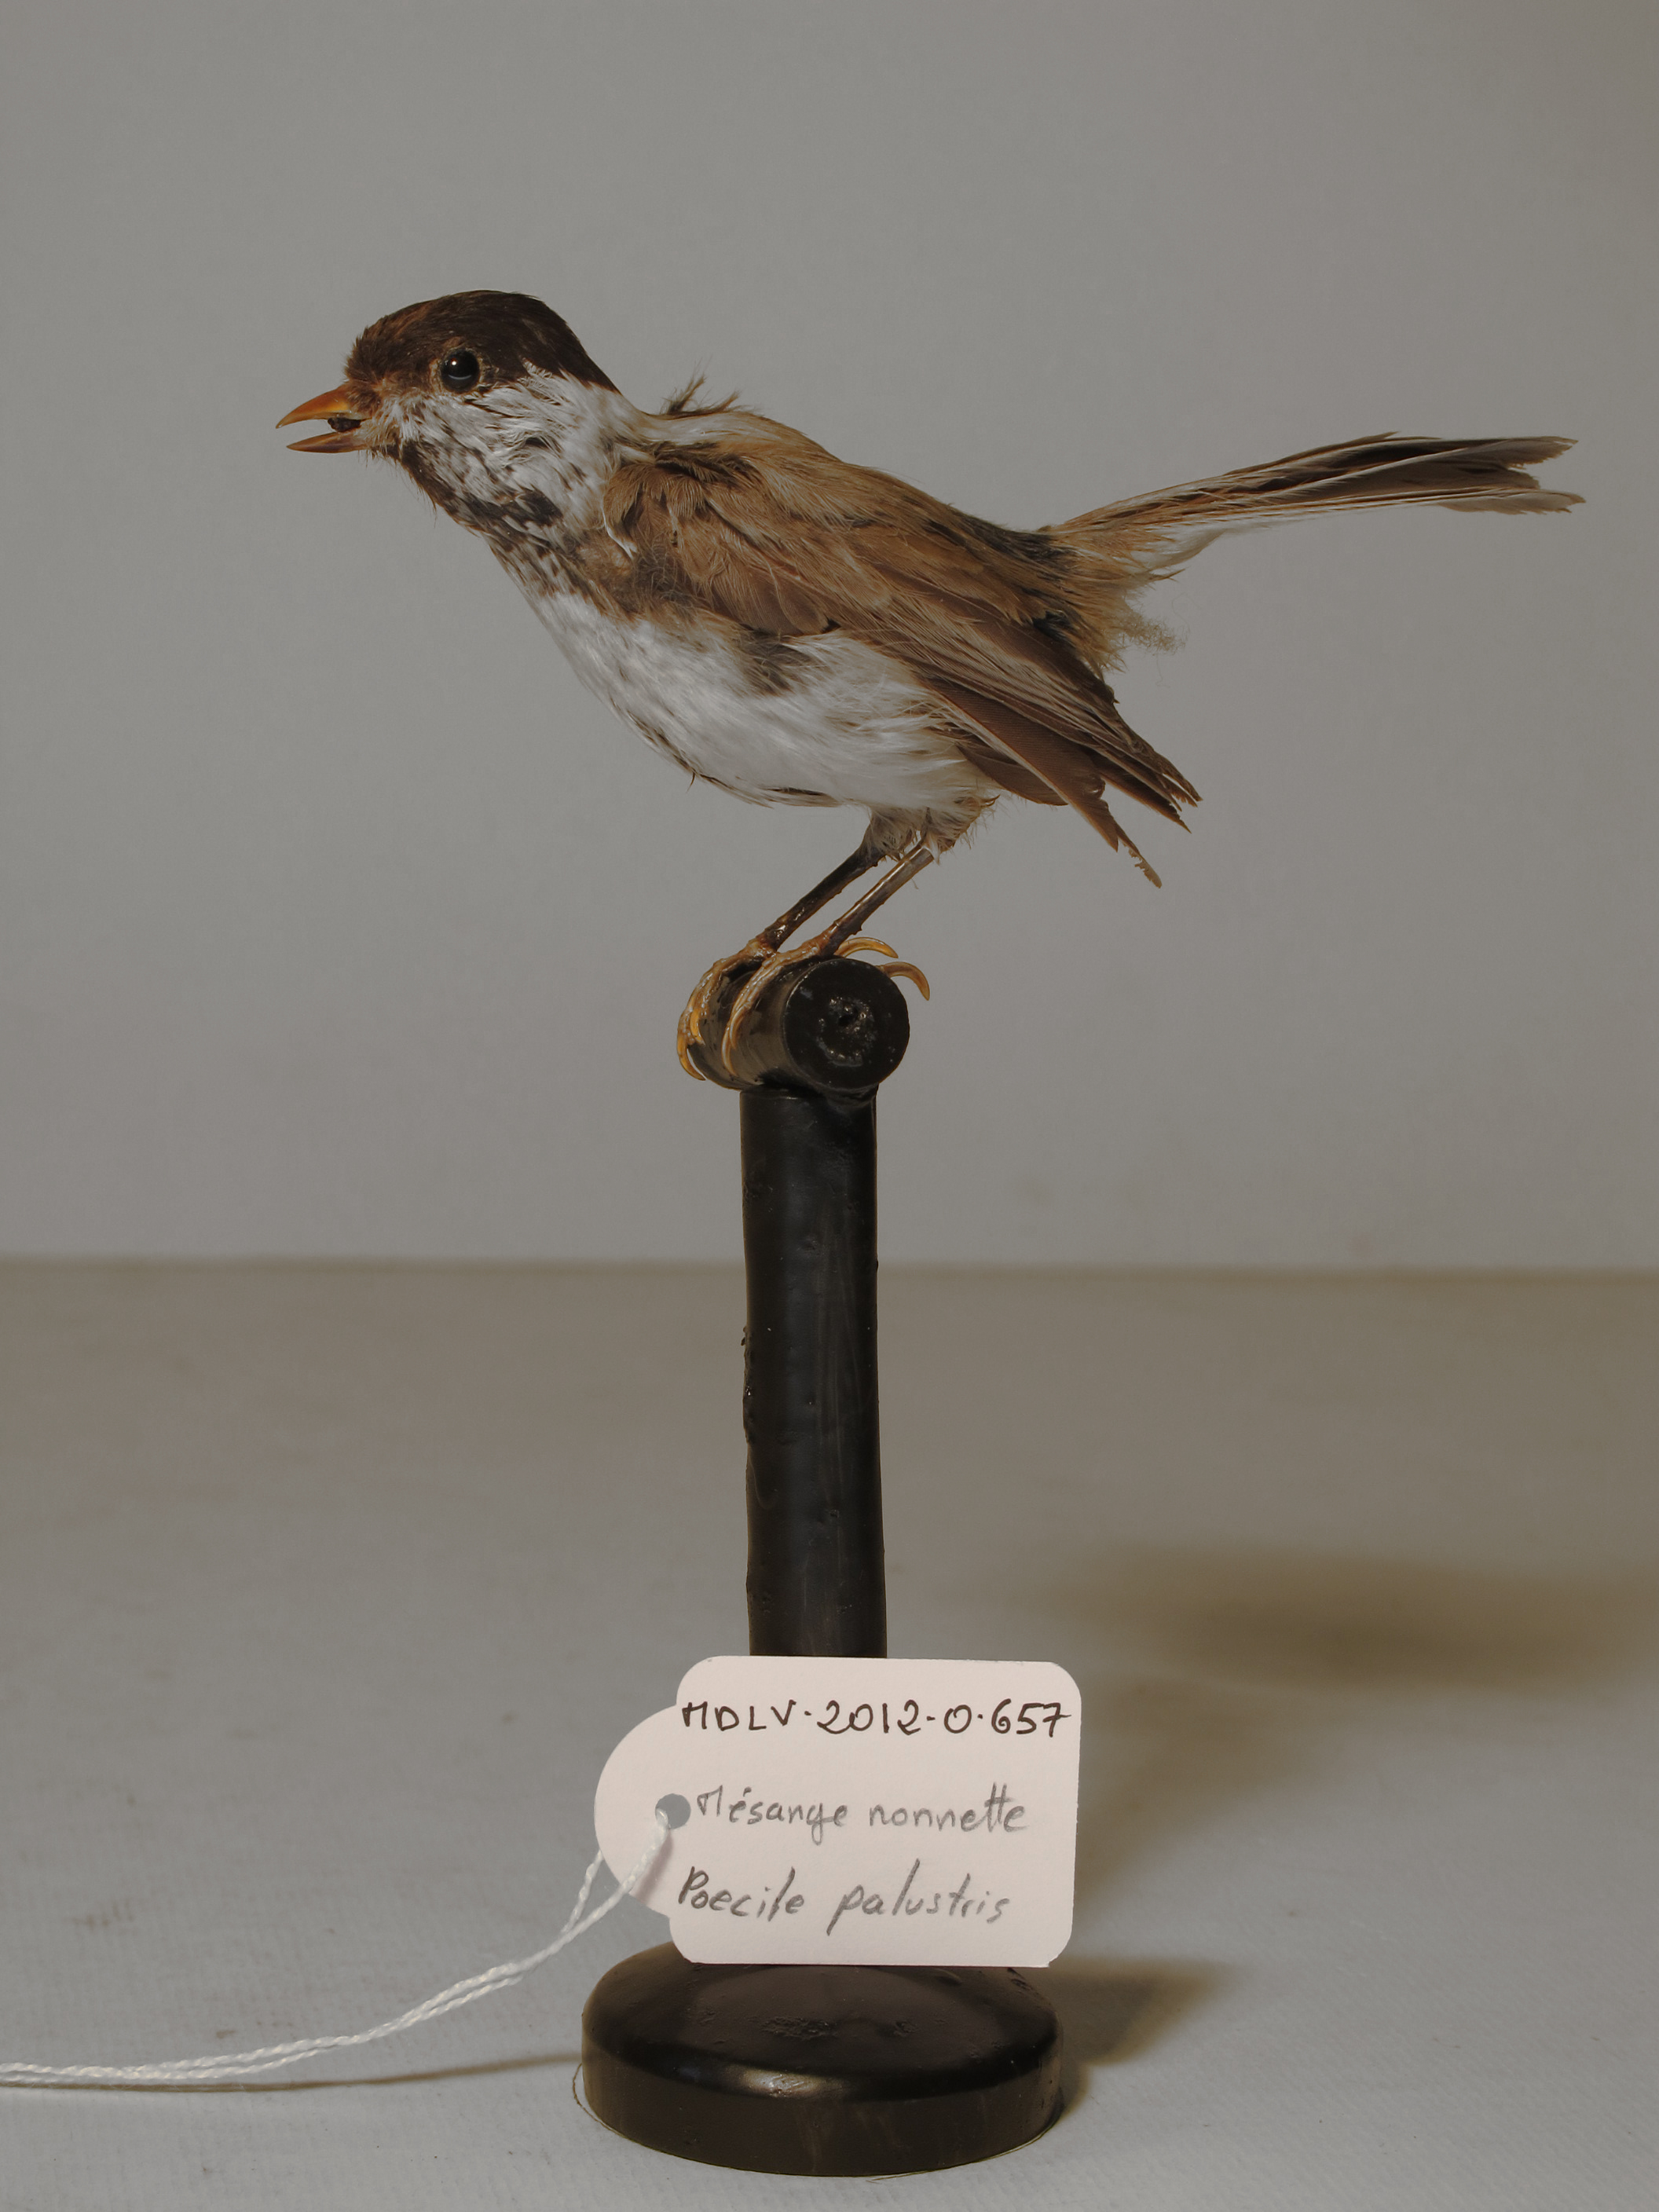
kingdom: Animalia
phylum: Chordata
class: Aves
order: Passeriformes
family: Paridae
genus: Poecile
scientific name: Poecile palustris
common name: Marsh Tit
